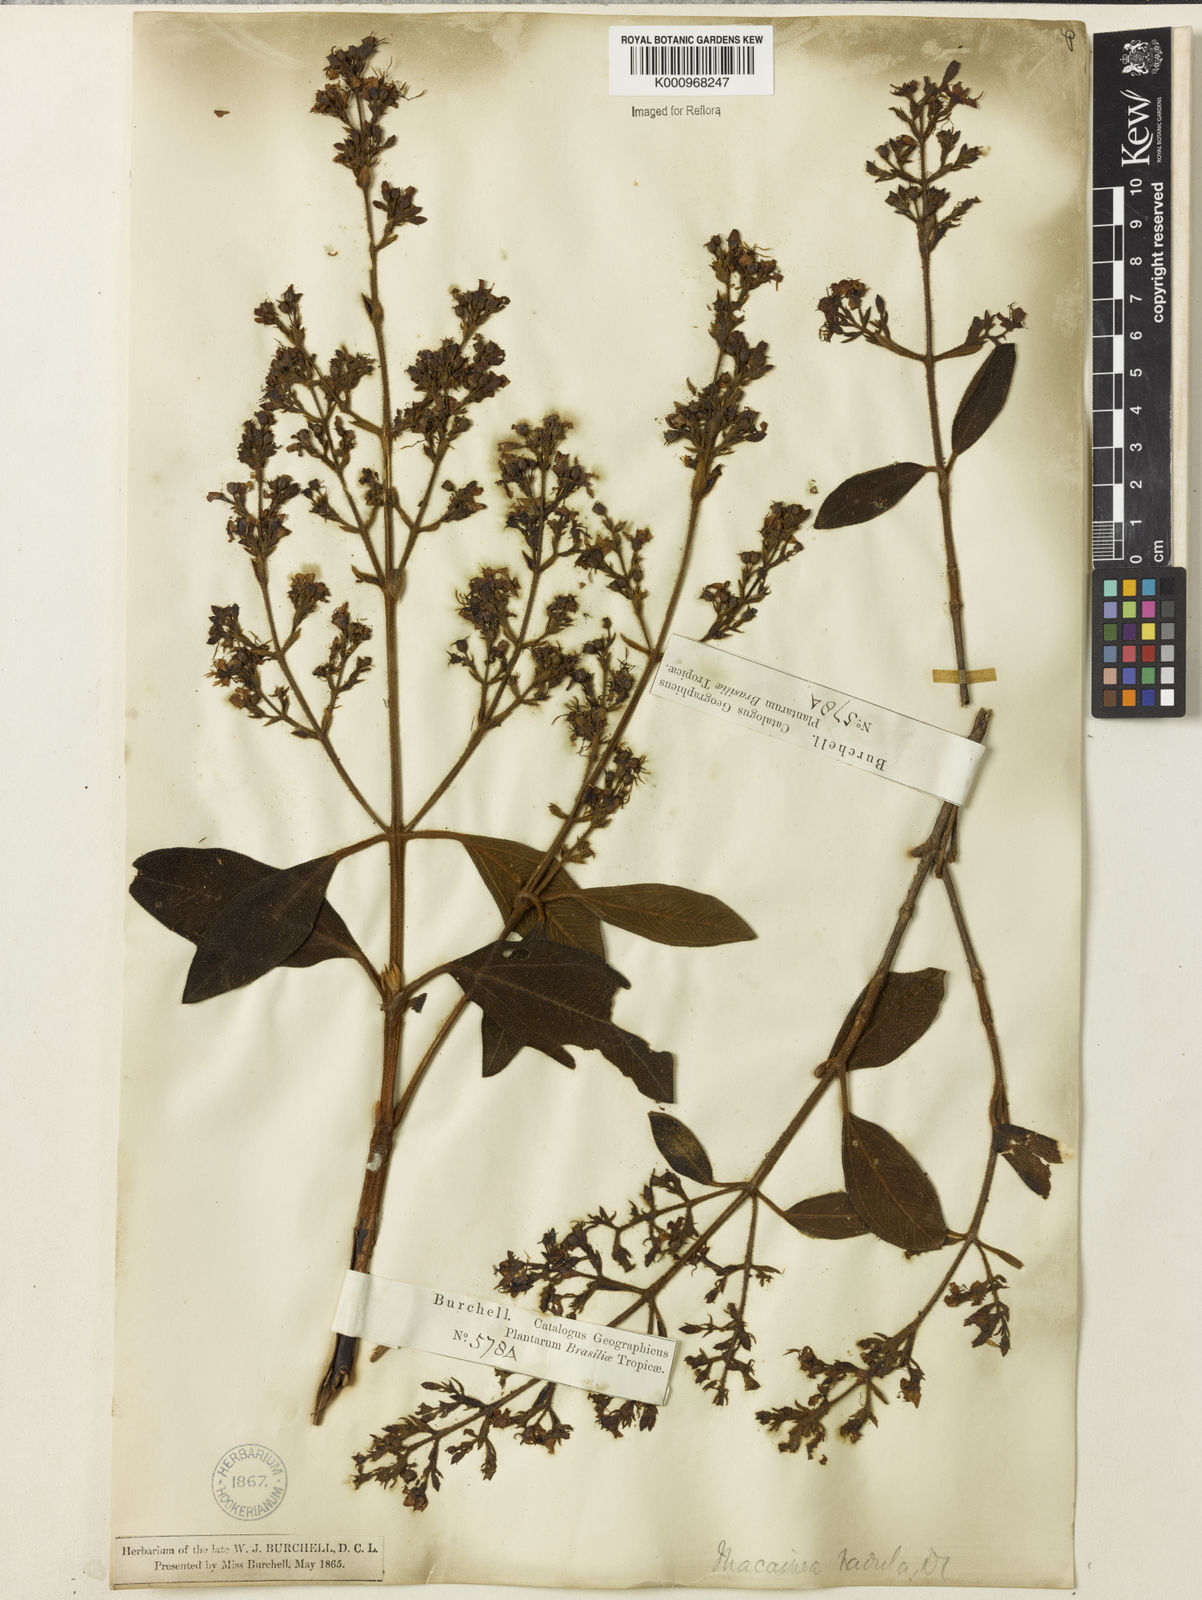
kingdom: Plantae
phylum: Tracheophyta
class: Magnoliopsida
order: Myrtales
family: Melastomataceae
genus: Macairea
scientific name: Macairea radula
